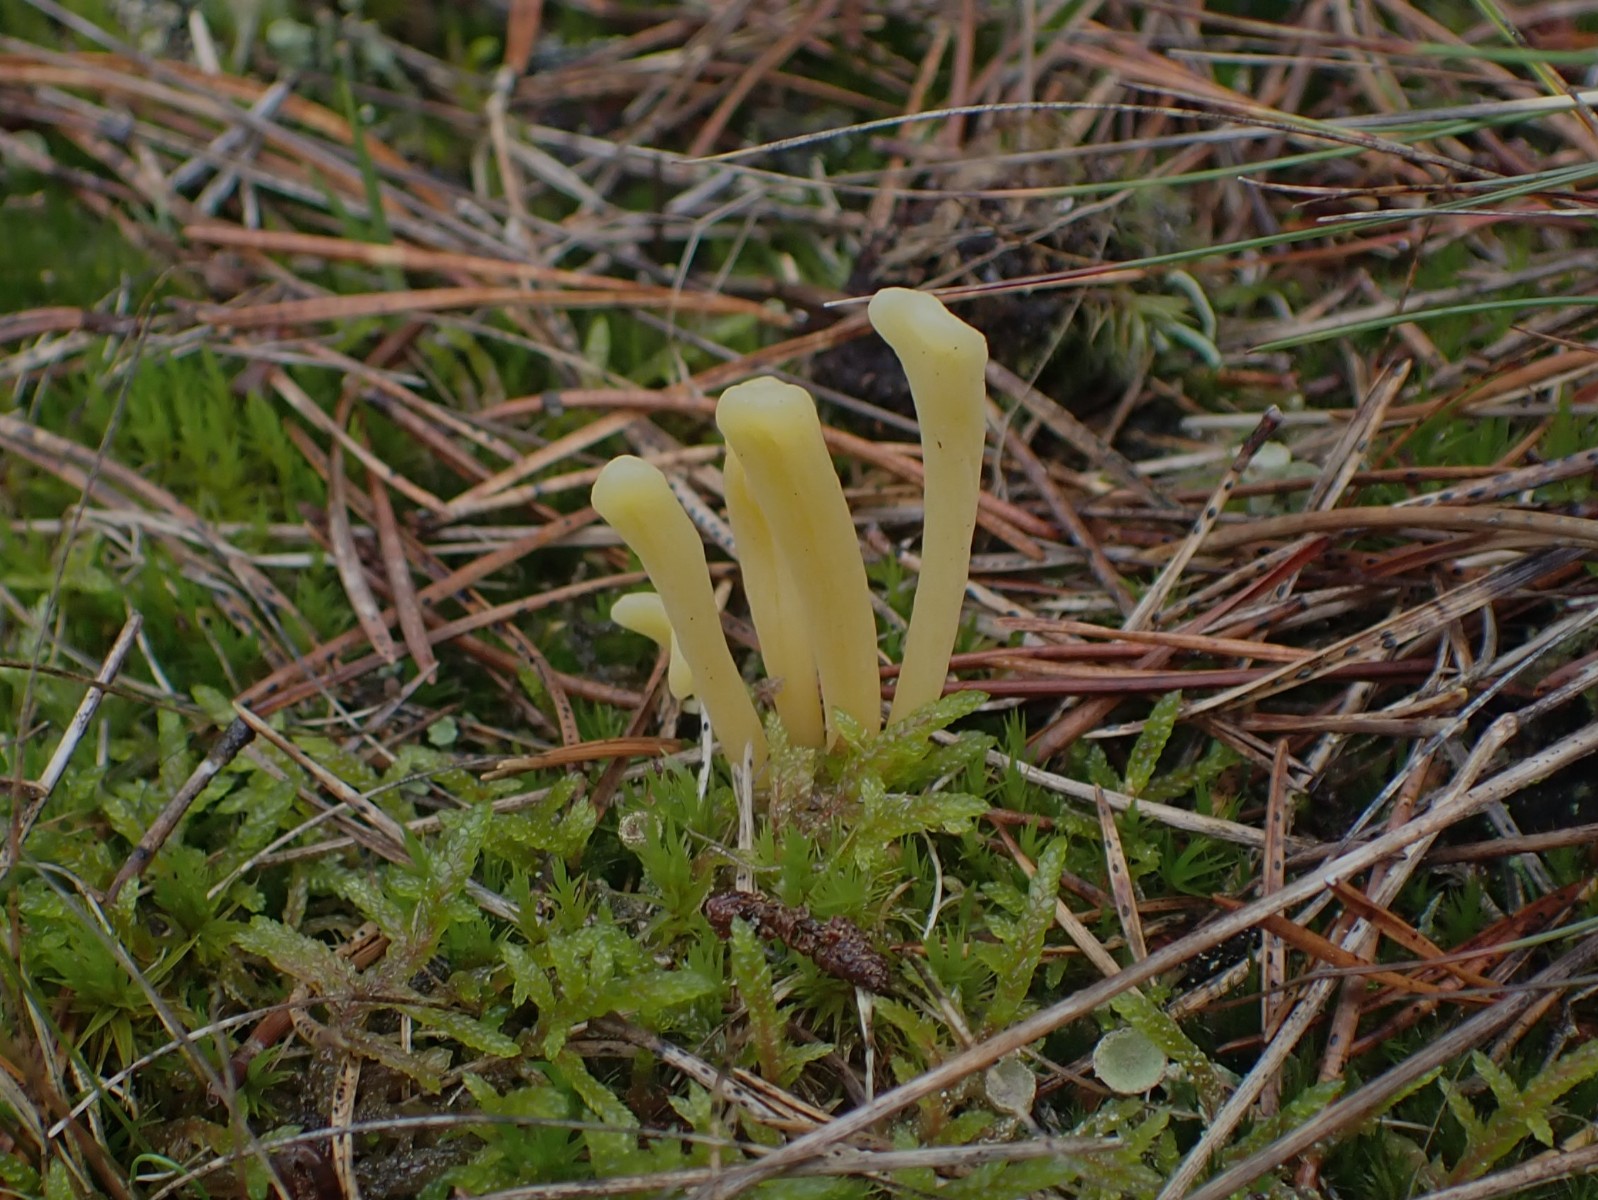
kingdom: Fungi
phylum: Basidiomycota
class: Agaricomycetes
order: Agaricales
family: Clavariaceae
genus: Clavaria
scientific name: Clavaria argillacea
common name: lerfarvet køllesvamp
